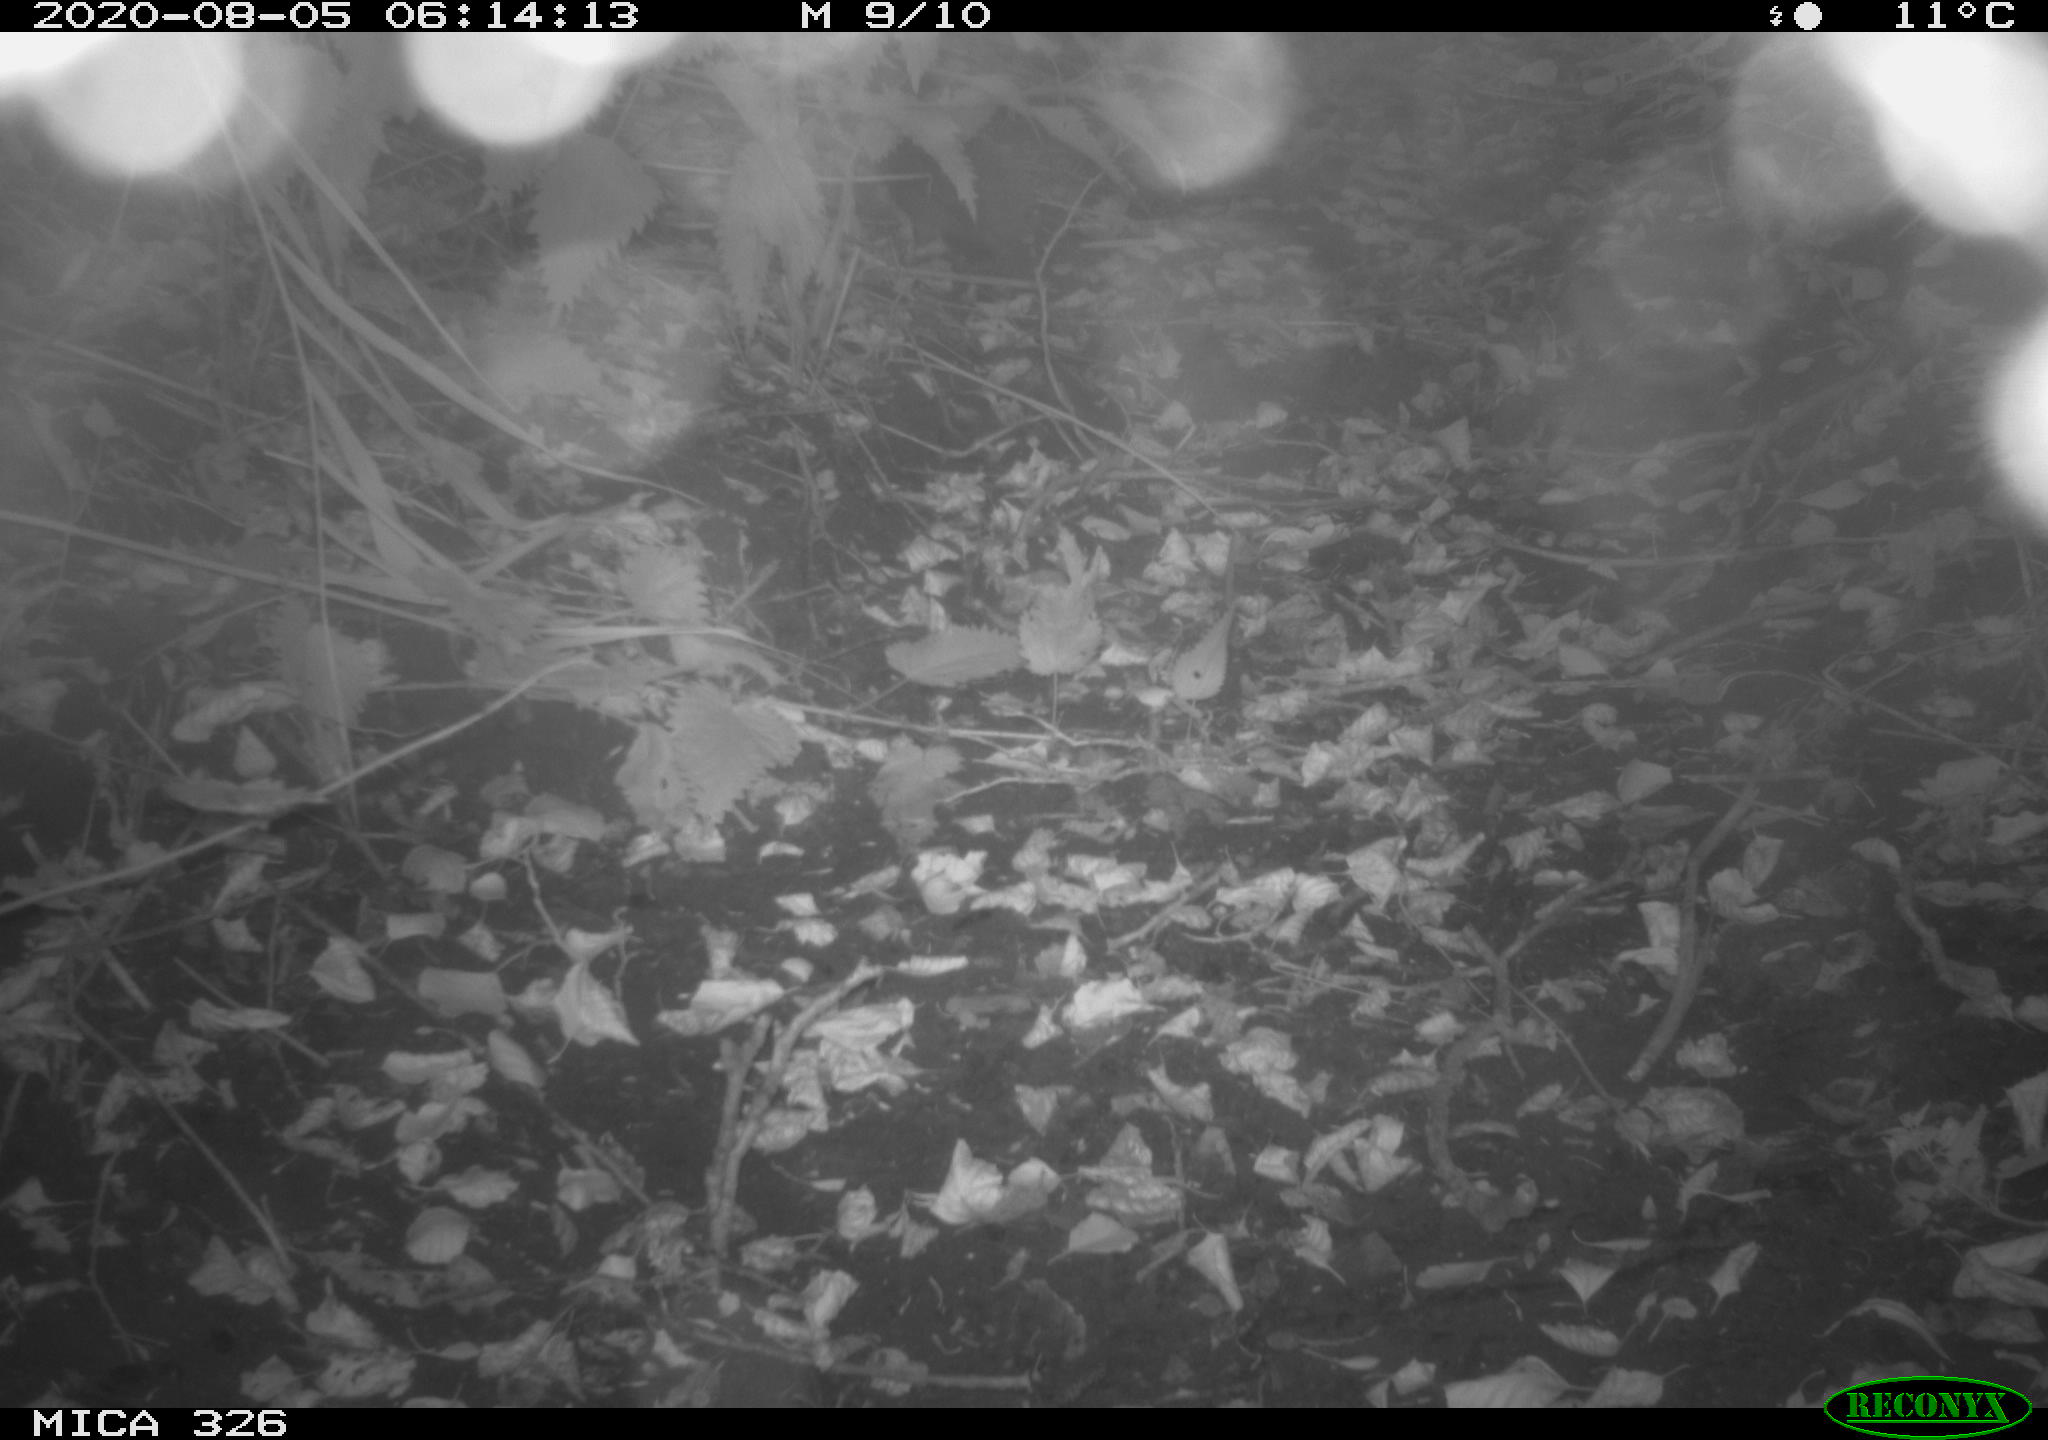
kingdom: Animalia
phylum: Chordata
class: Mammalia
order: Erinaceomorpha
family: Erinaceidae
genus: Erinaceus
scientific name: Erinaceus europaeus
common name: West european hedgehog
